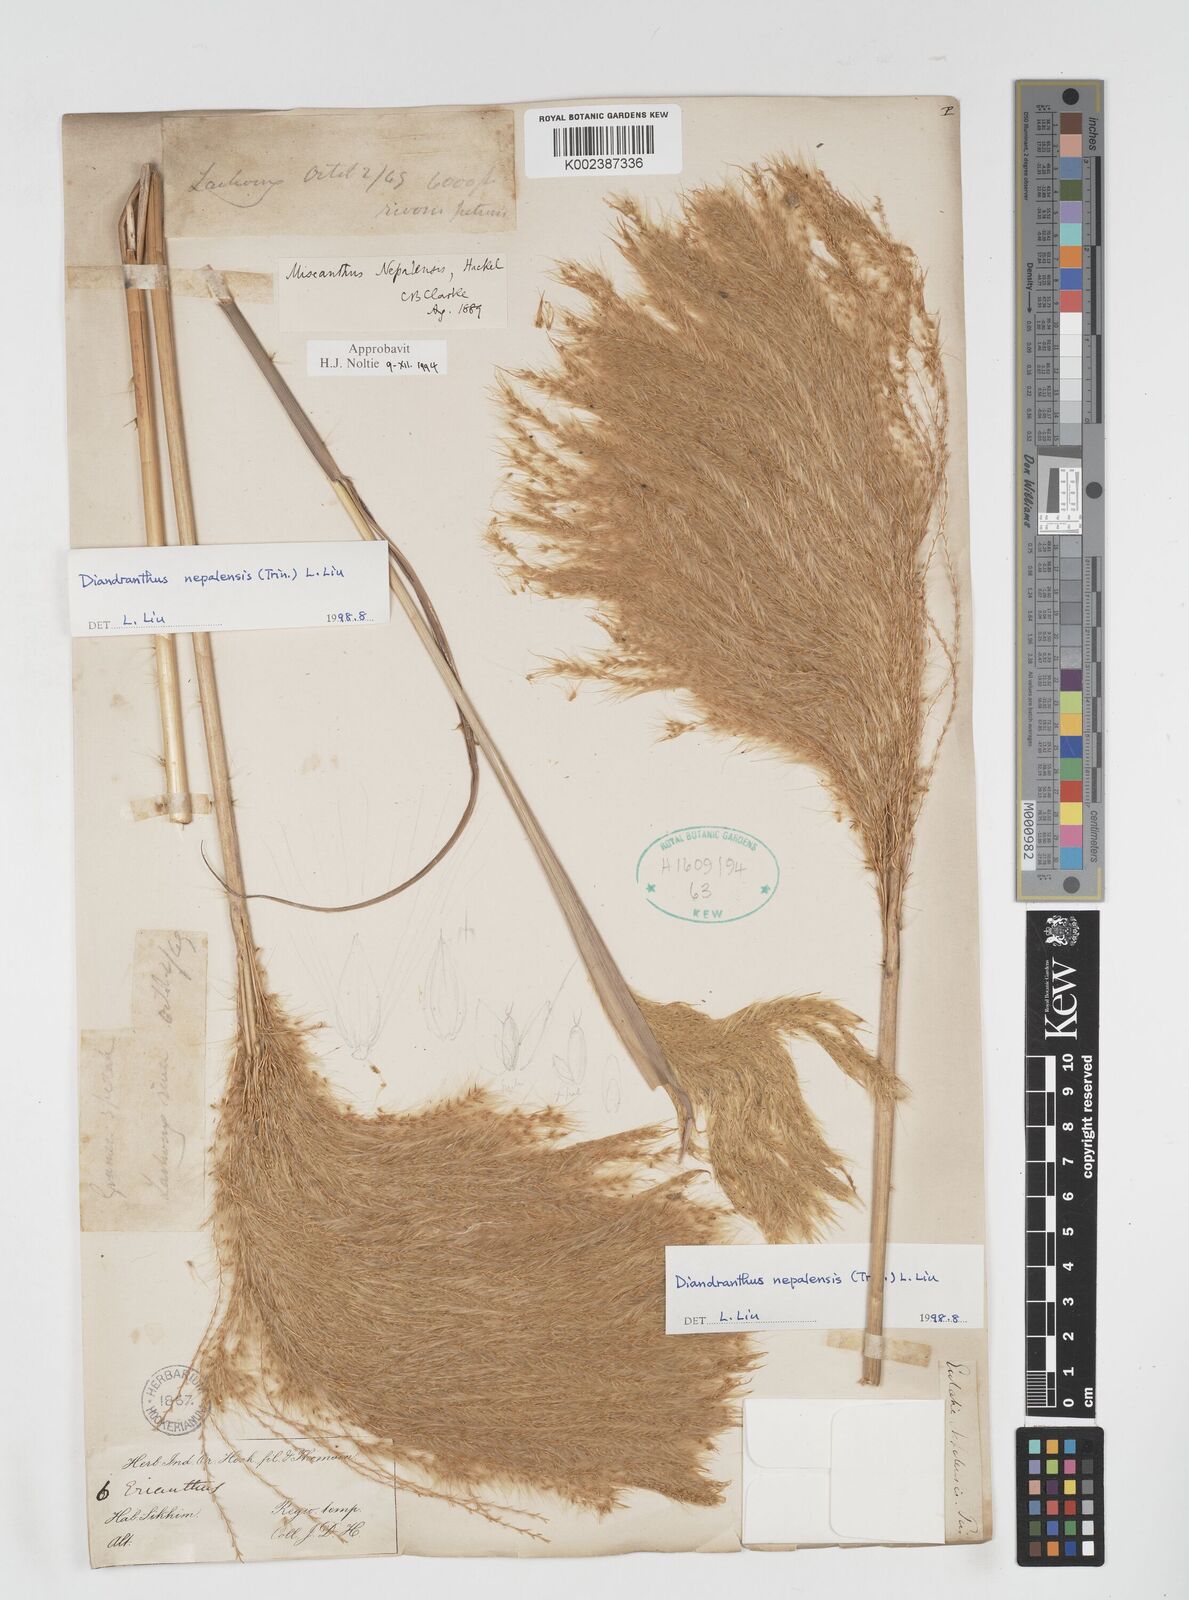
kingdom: Plantae
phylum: Tracheophyta
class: Liliopsida
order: Poales
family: Poaceae
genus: Miscanthus
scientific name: Miscanthus nepalensis
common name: Nepal silver grass
